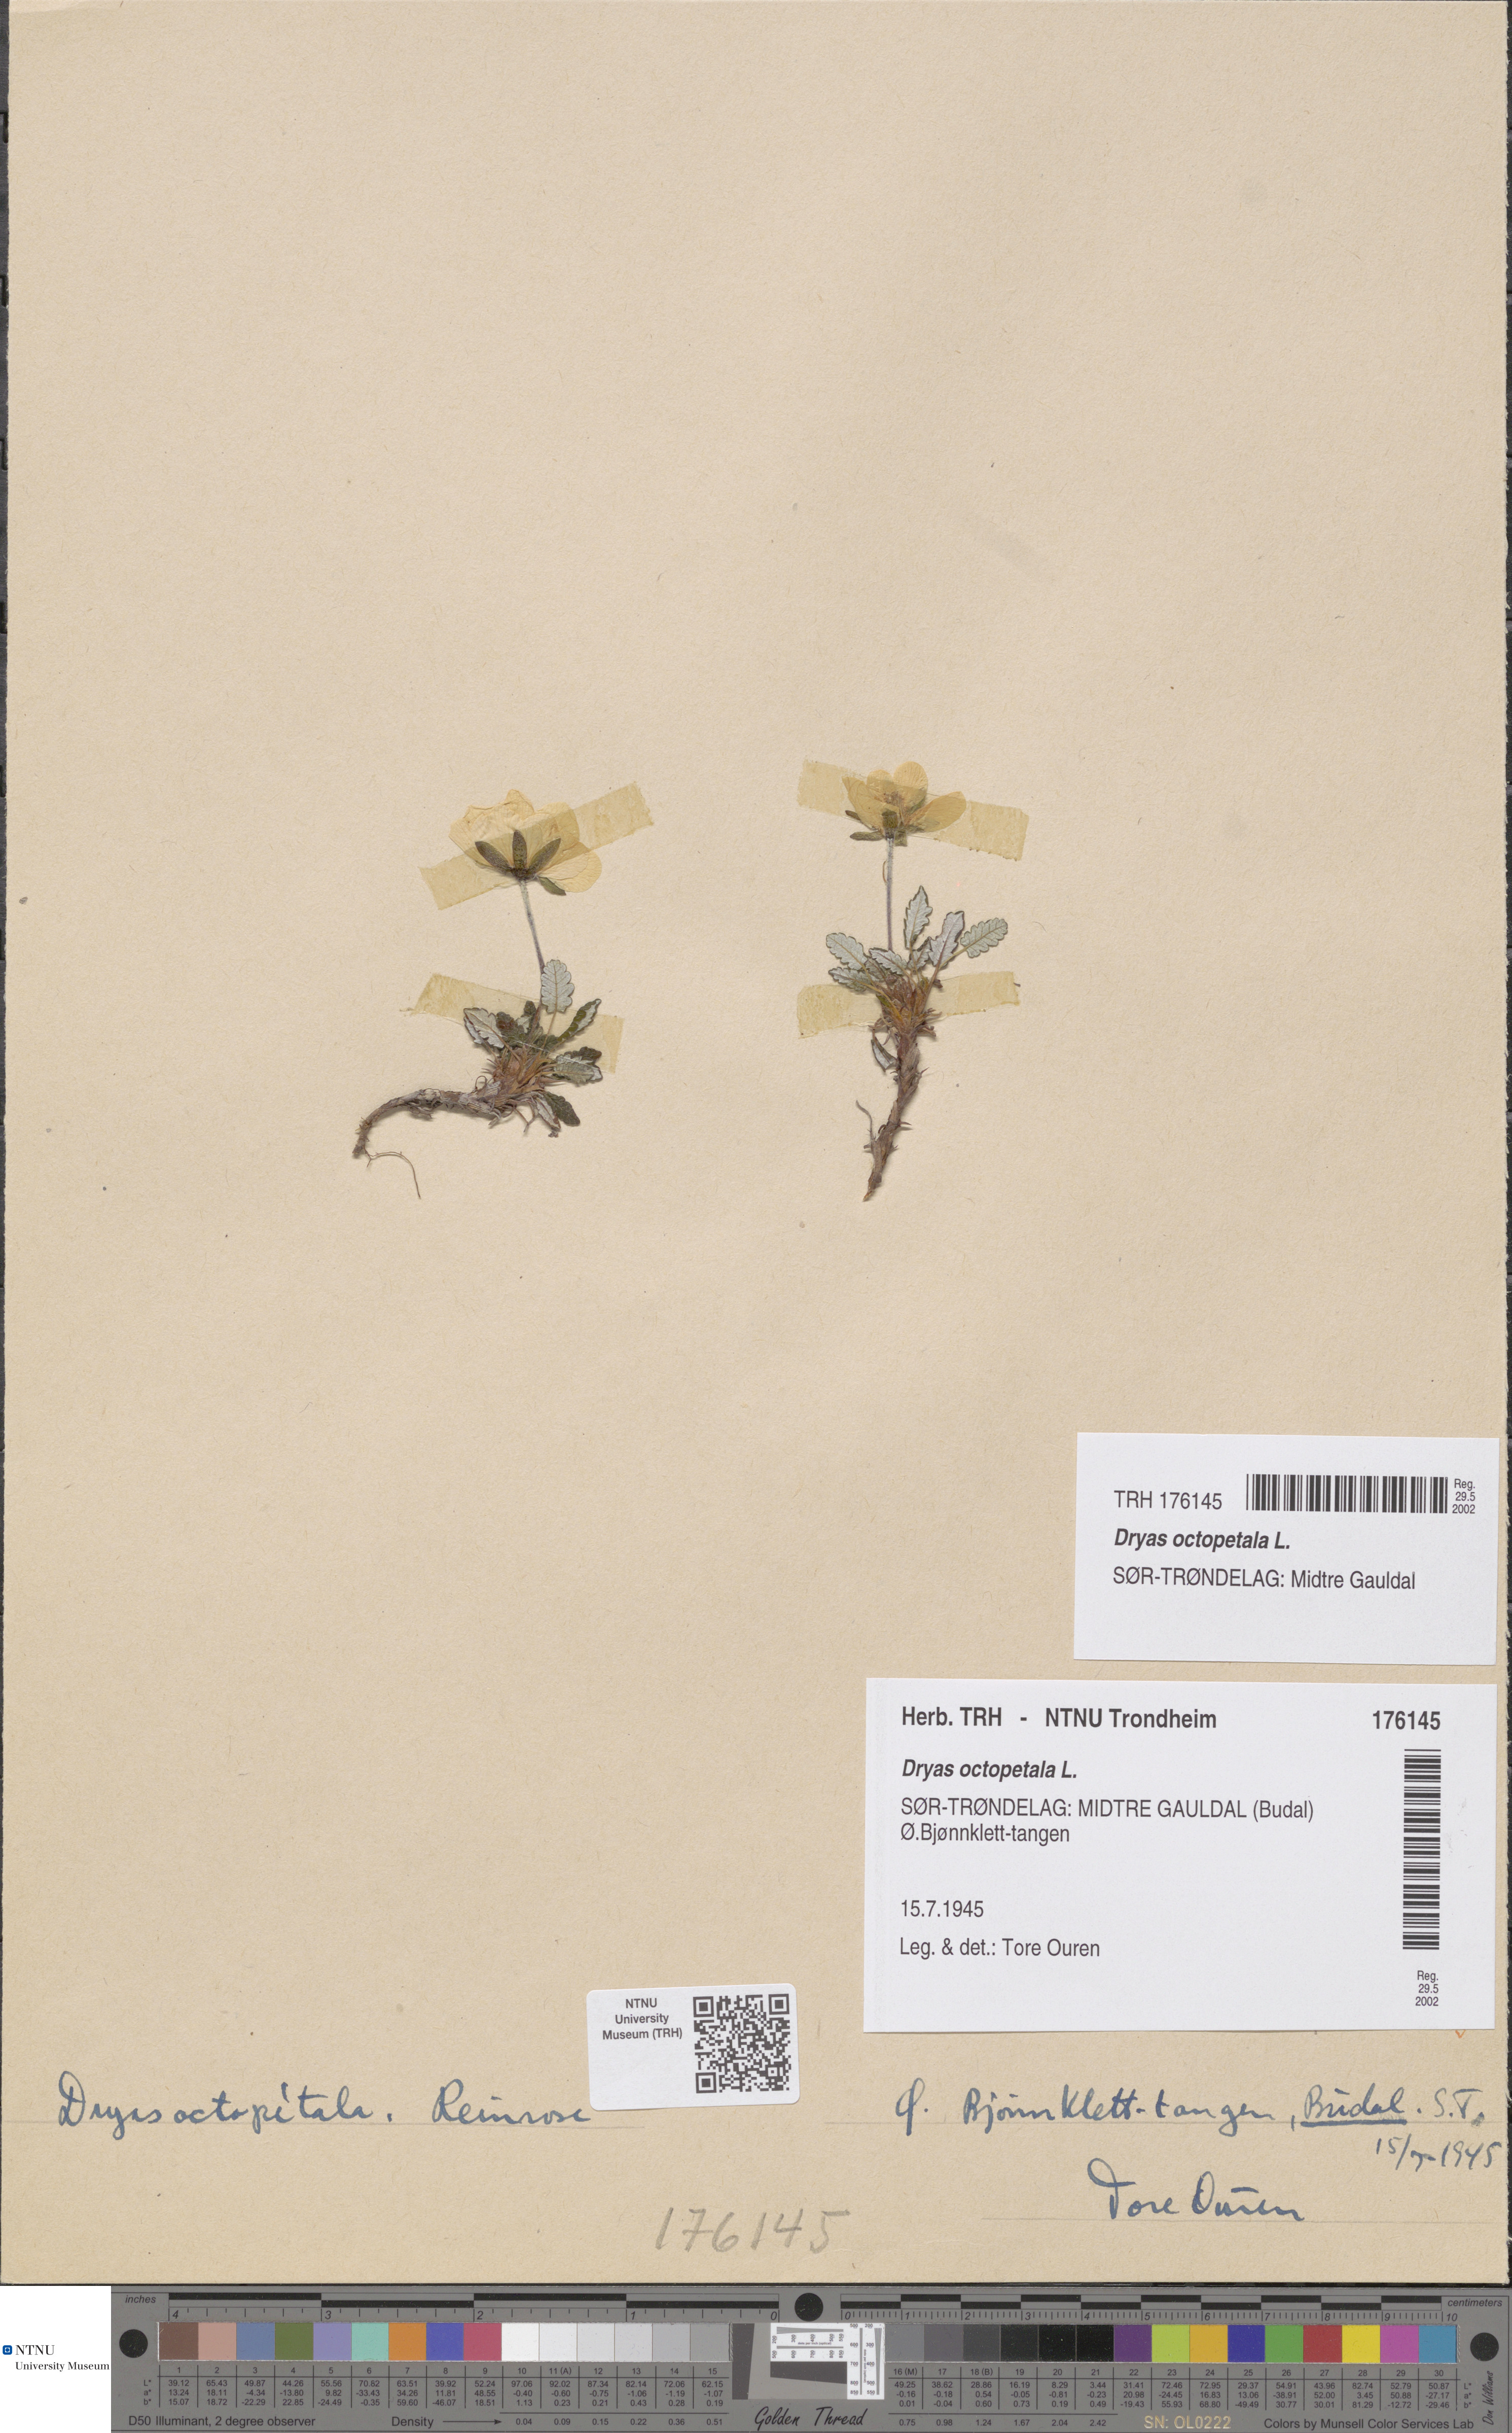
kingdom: Plantae
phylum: Tracheophyta
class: Magnoliopsida
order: Rosales
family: Rosaceae
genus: Dryas
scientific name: Dryas octopetala
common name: Eight-petal mountain-avens
